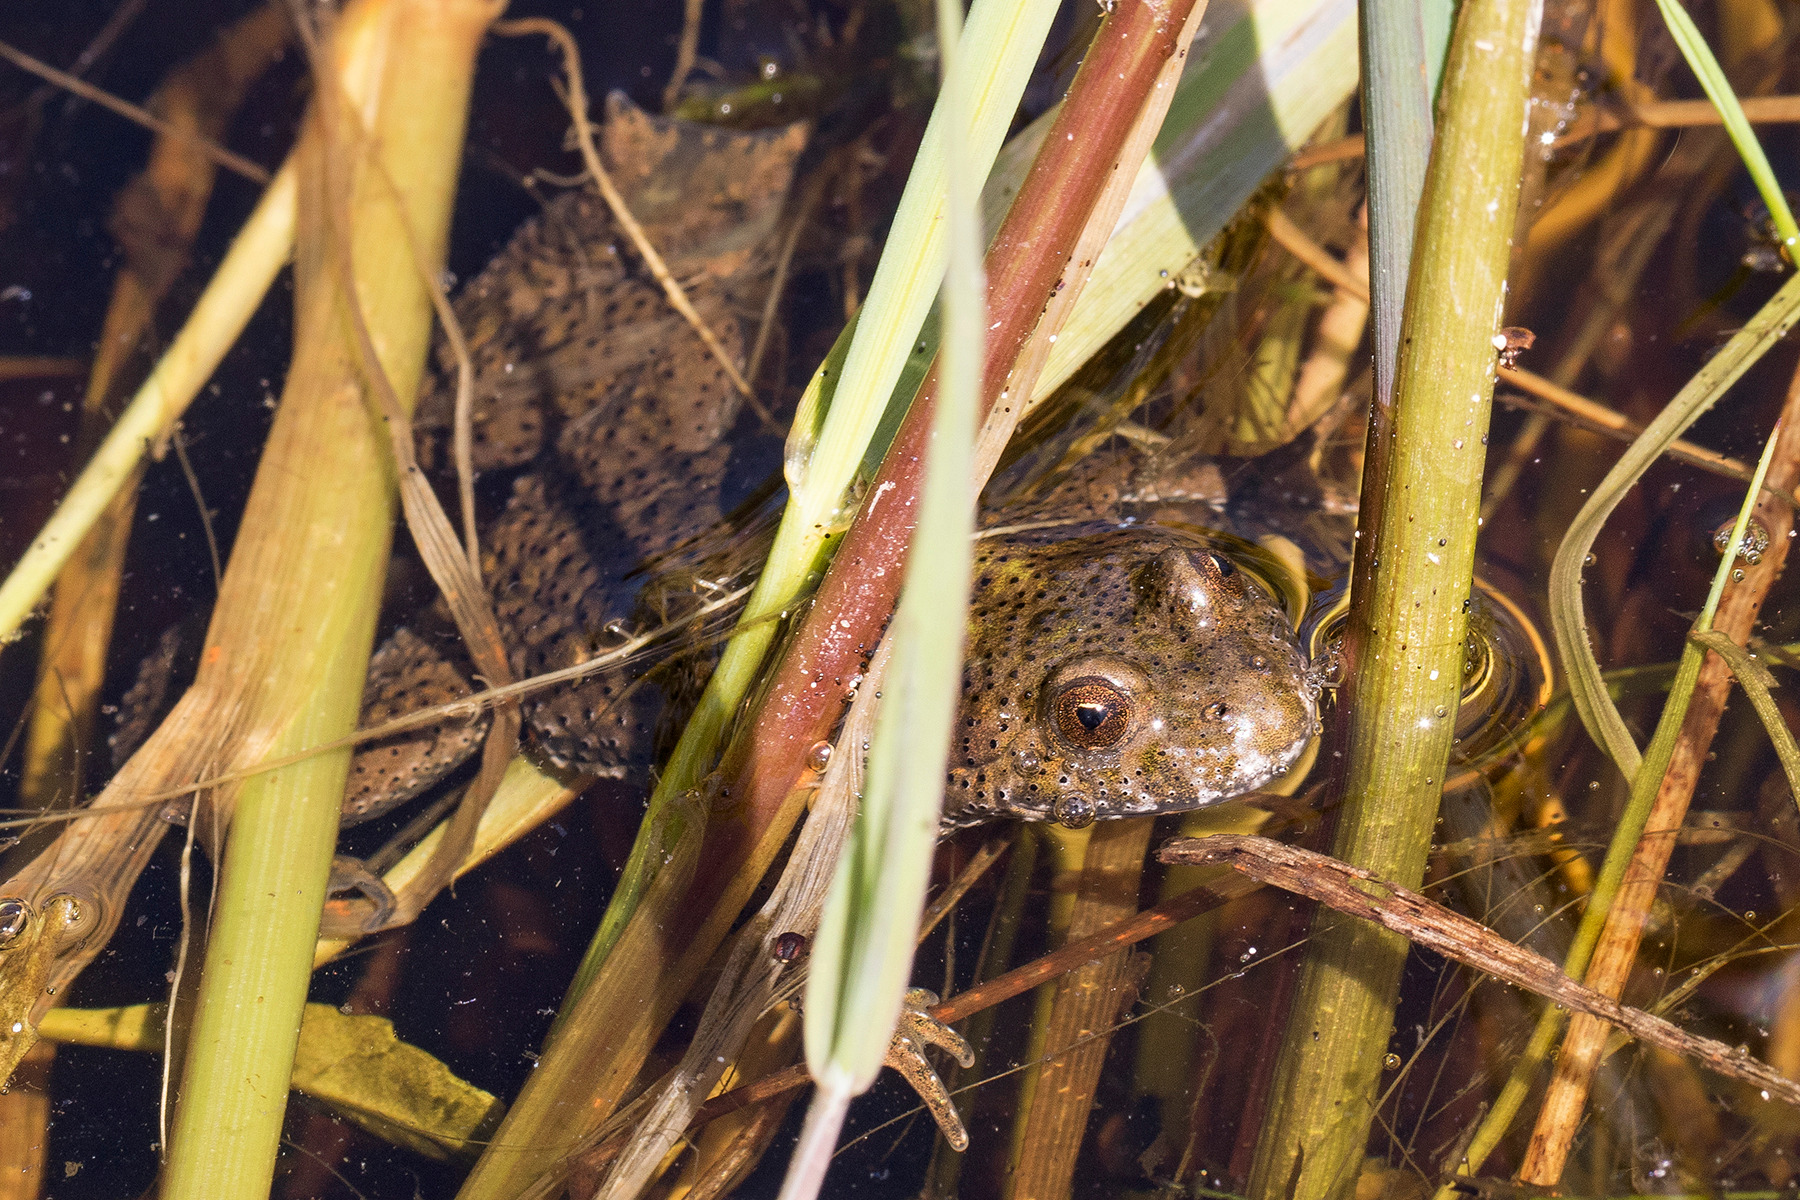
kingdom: Animalia
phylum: Chordata
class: Amphibia
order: Anura
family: Bombinatoridae
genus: Bombina
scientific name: Bombina bombina
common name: Klokkefrø
